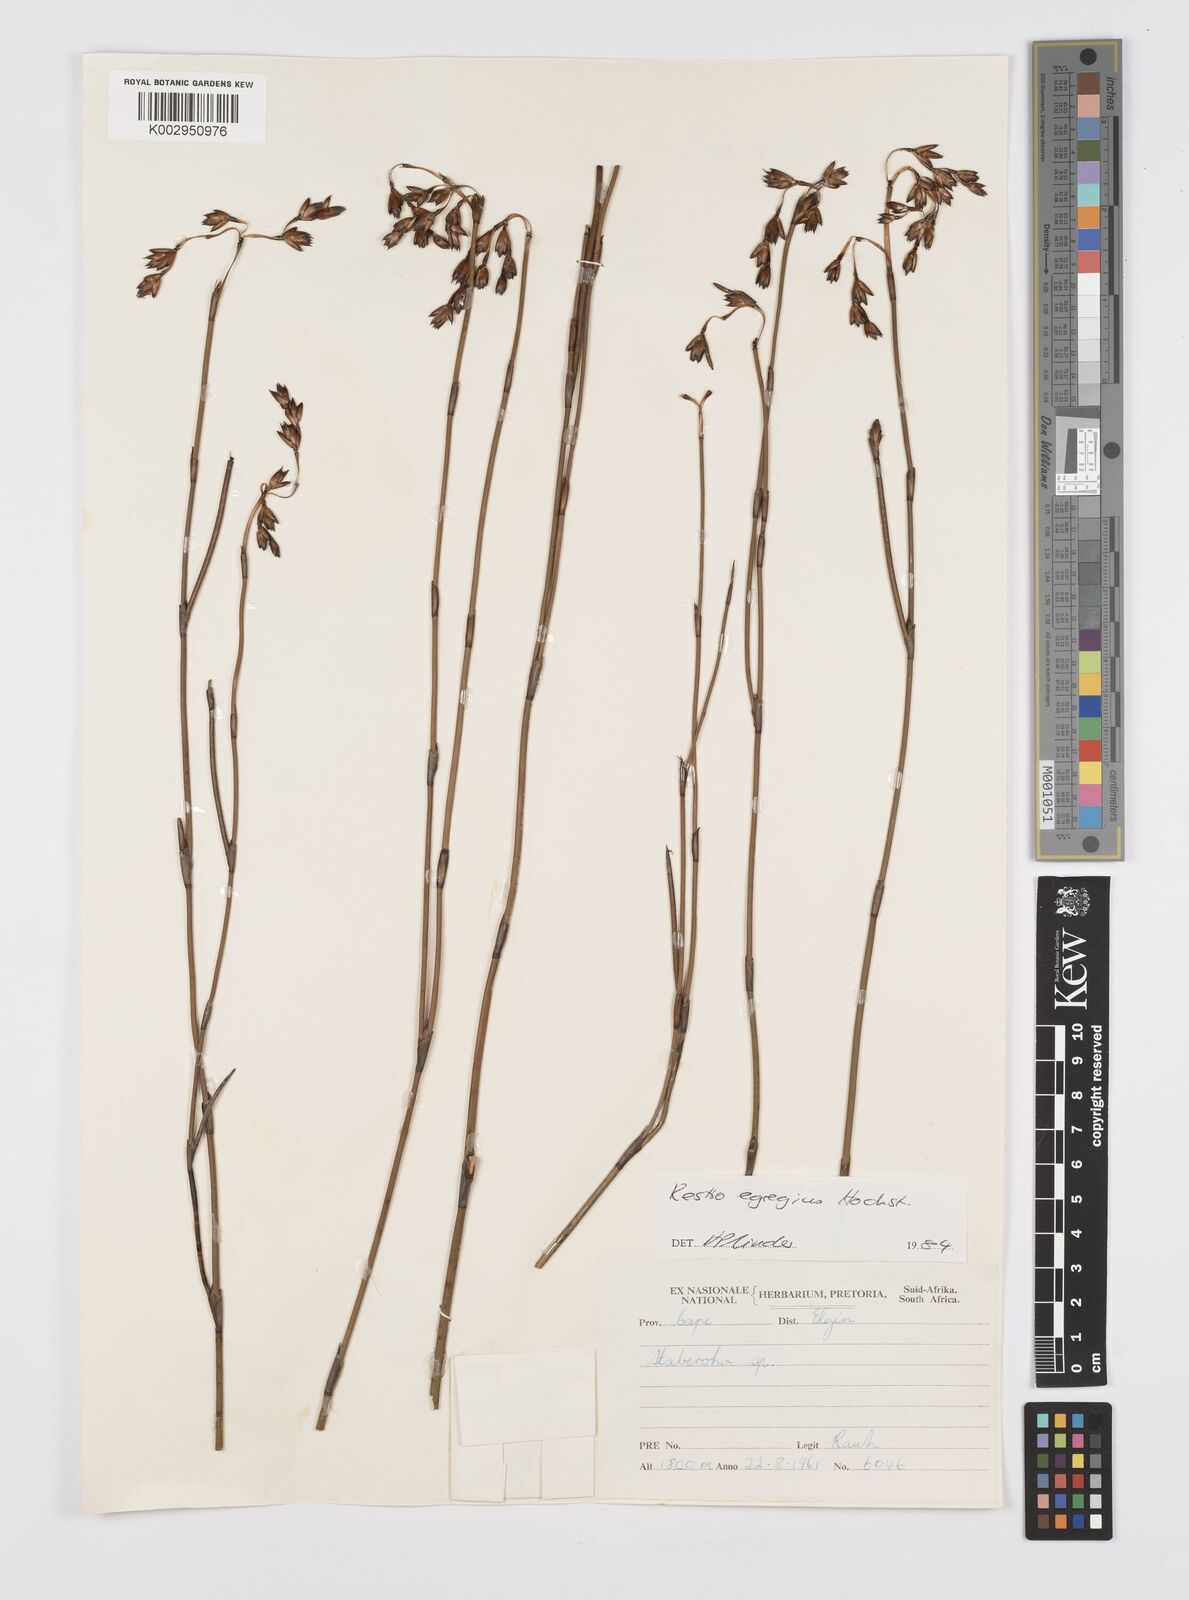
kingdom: Plantae
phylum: Tracheophyta
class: Liliopsida
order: Poales
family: Restionaceae
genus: Restio
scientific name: Restio egregius
